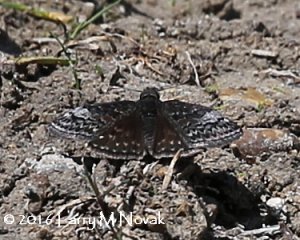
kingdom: Animalia
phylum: Arthropoda
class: Insecta
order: Lepidoptera
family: Hesperiidae
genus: Erynnis
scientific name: Erynnis icelus
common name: Dreamy Duskywing
